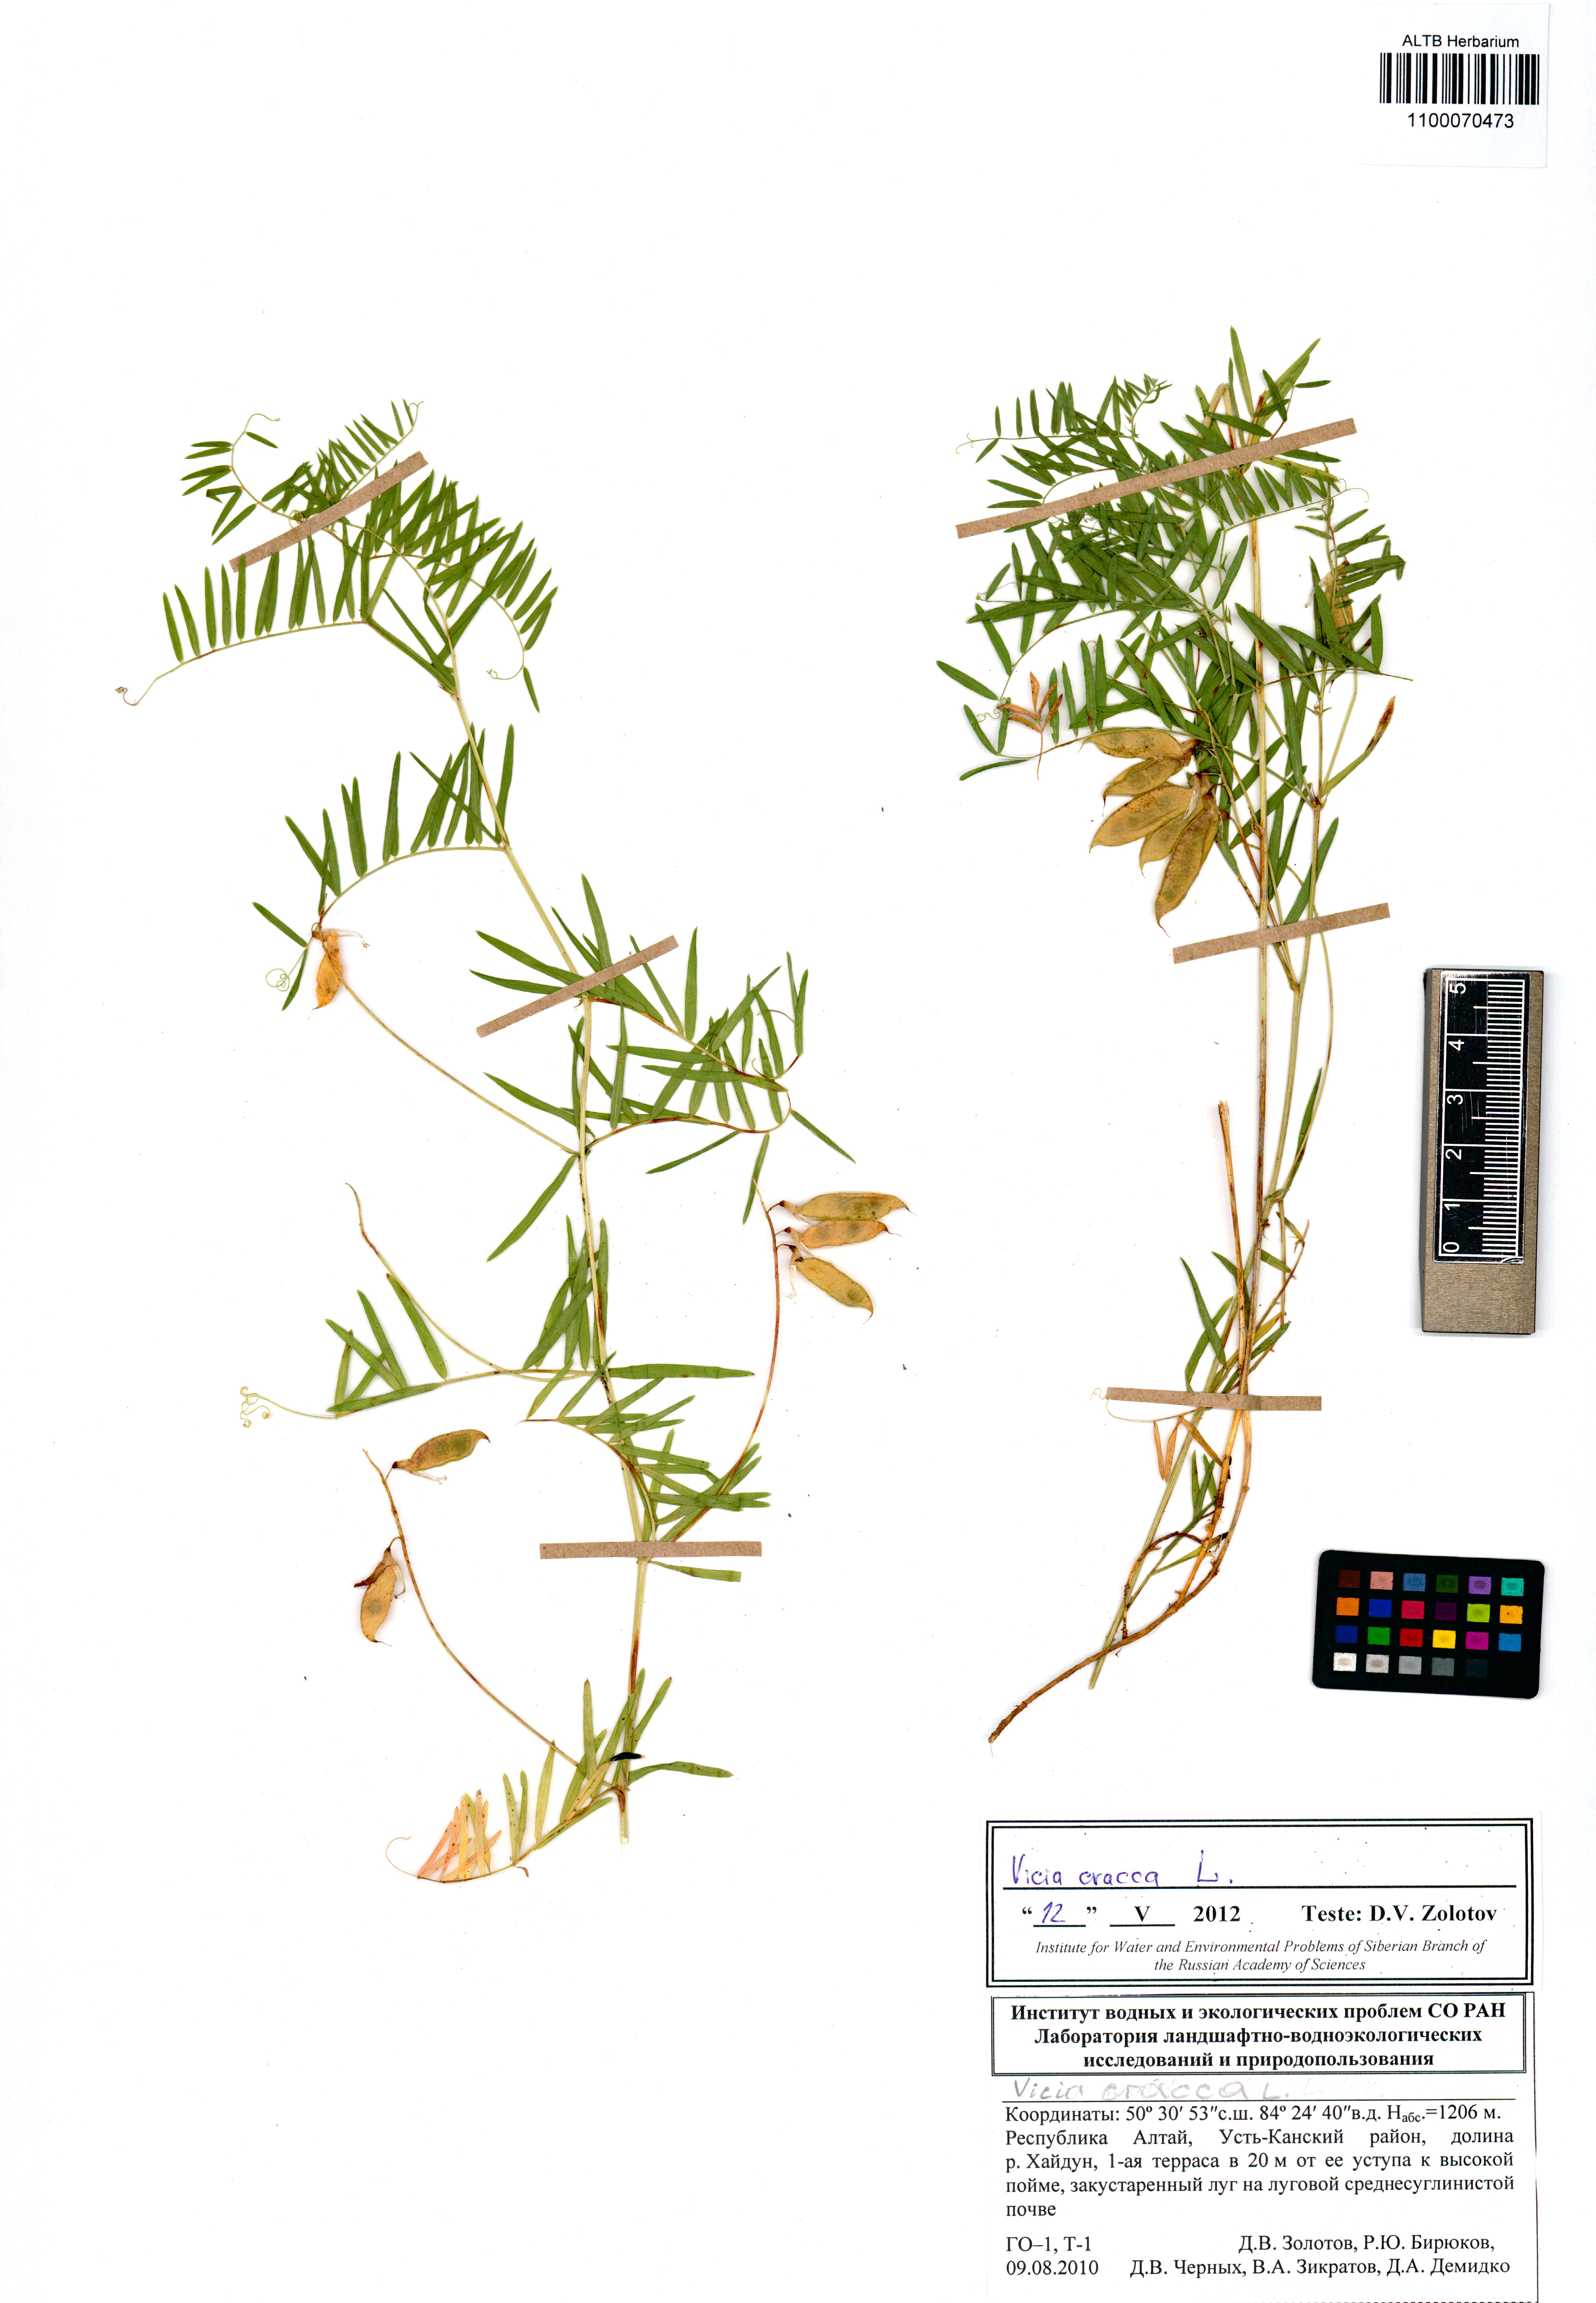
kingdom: Plantae
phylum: Tracheophyta
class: Magnoliopsida
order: Fabales
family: Fabaceae
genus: Vicia
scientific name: Vicia cracca
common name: Bird vetch
